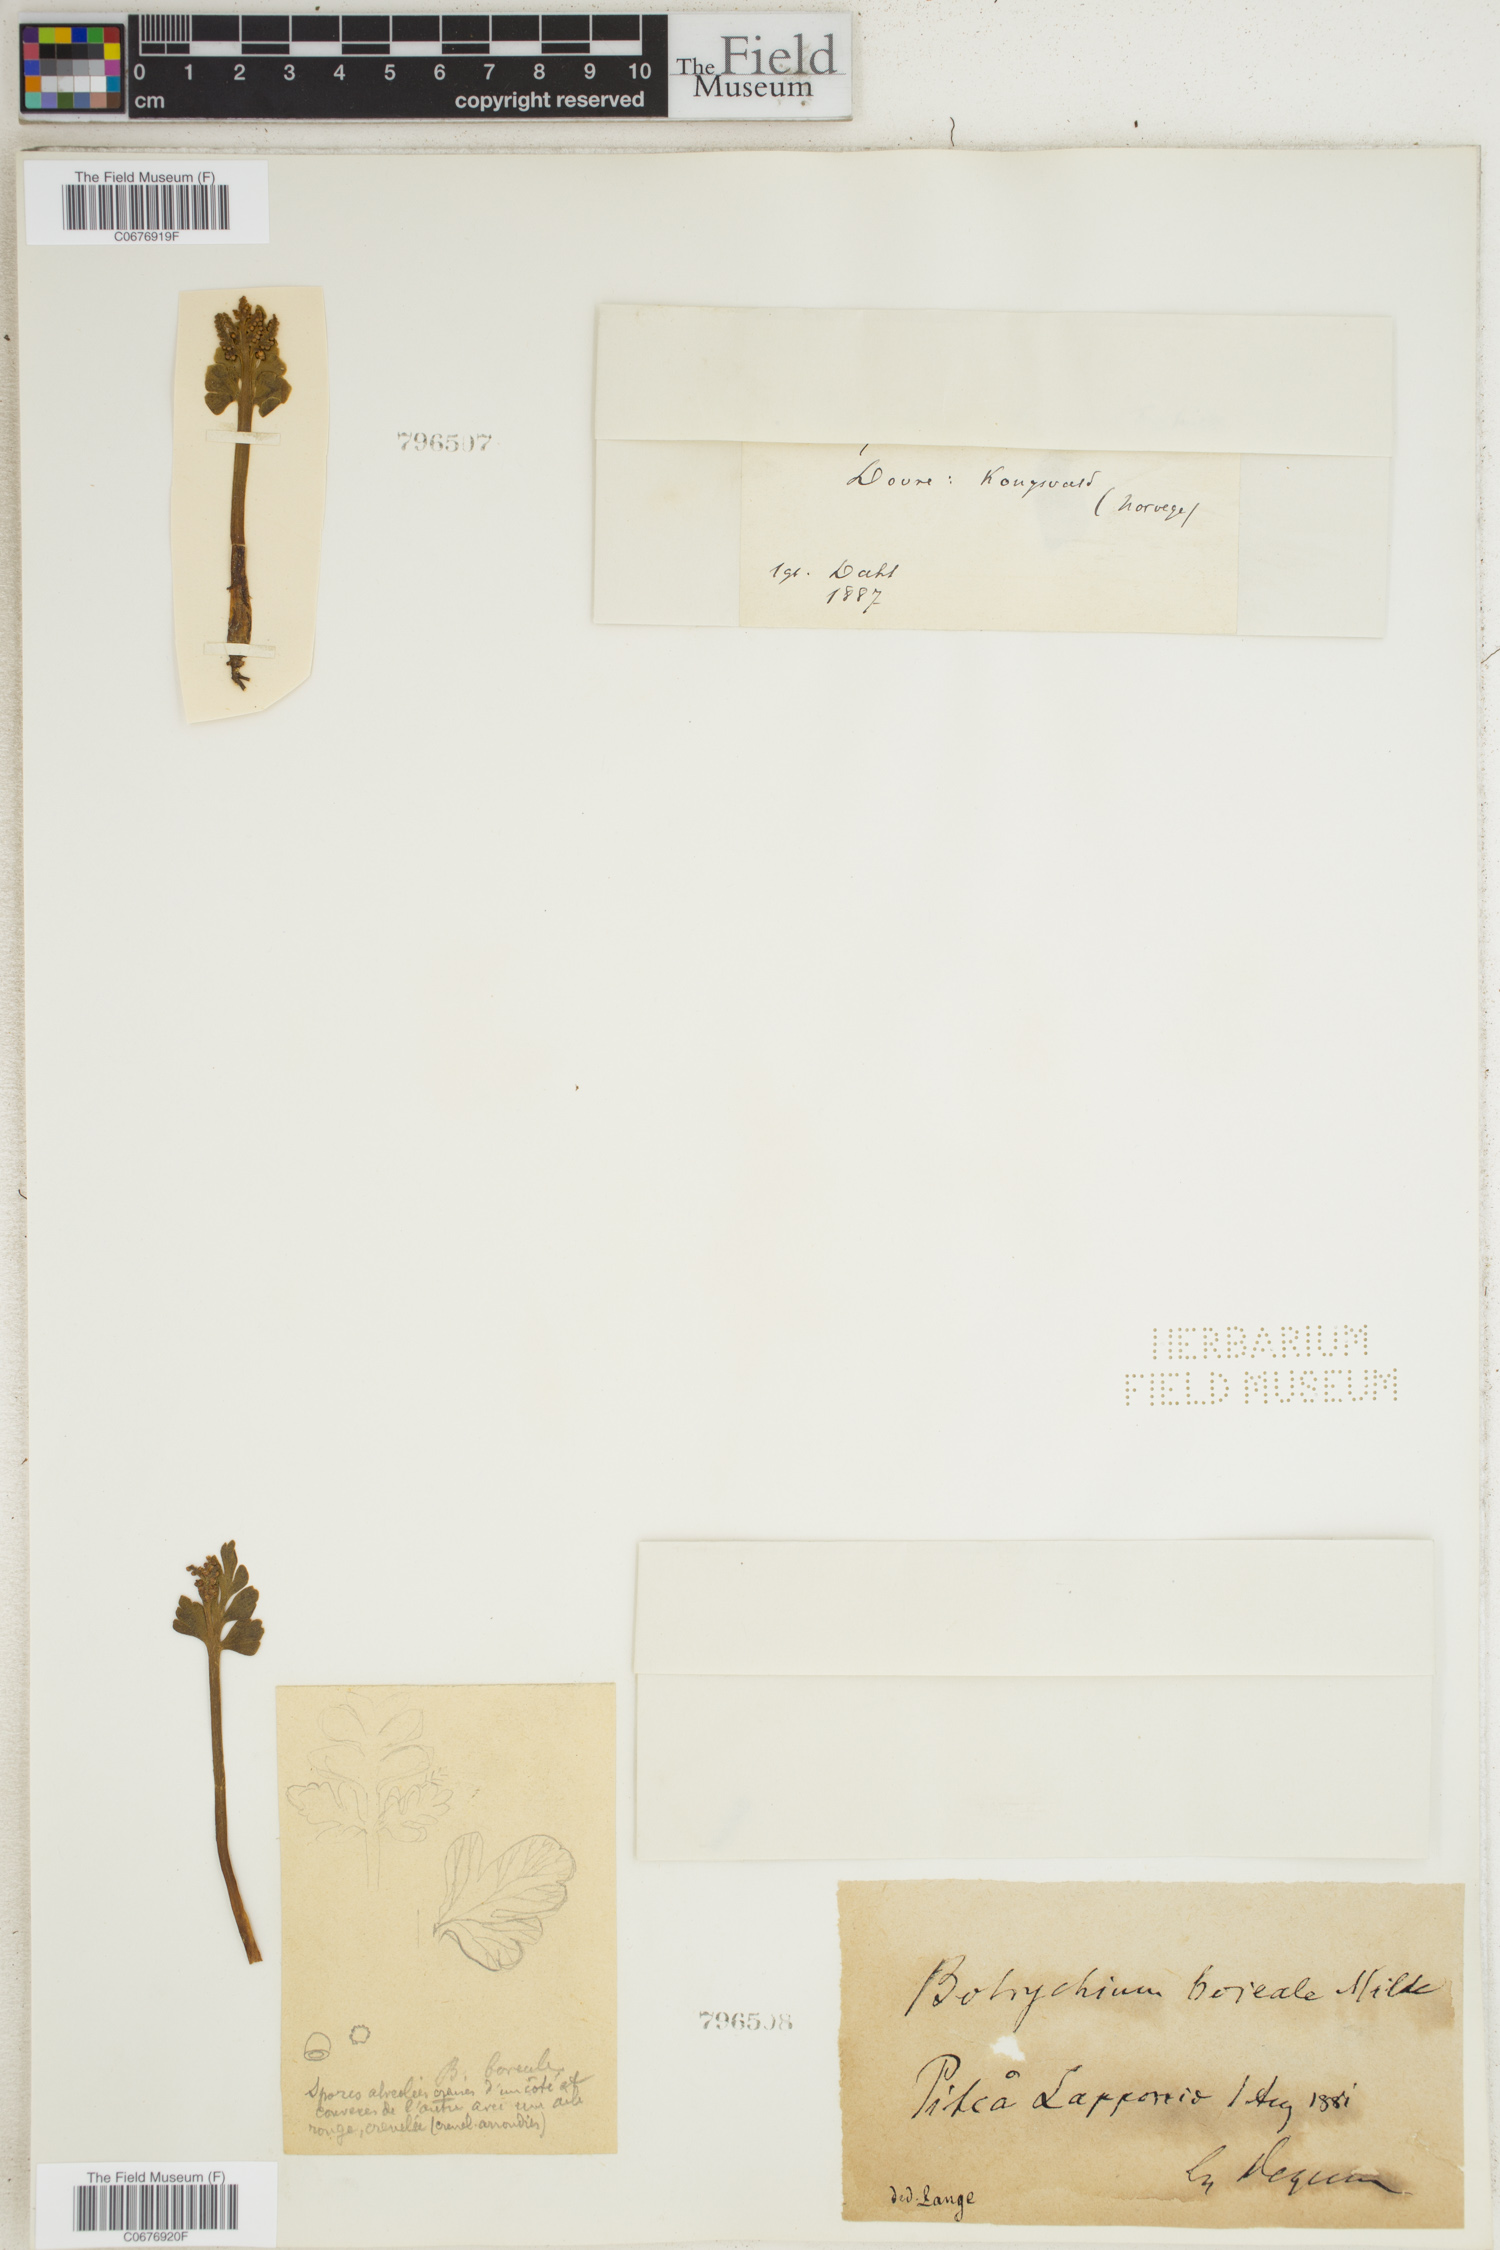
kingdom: Plantae
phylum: Tracheophyta
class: Polypodiopsida
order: Ophioglossales
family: Ophioglossaceae
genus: Botrychium
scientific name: Botrychium boreale
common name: Boreal moonwort
